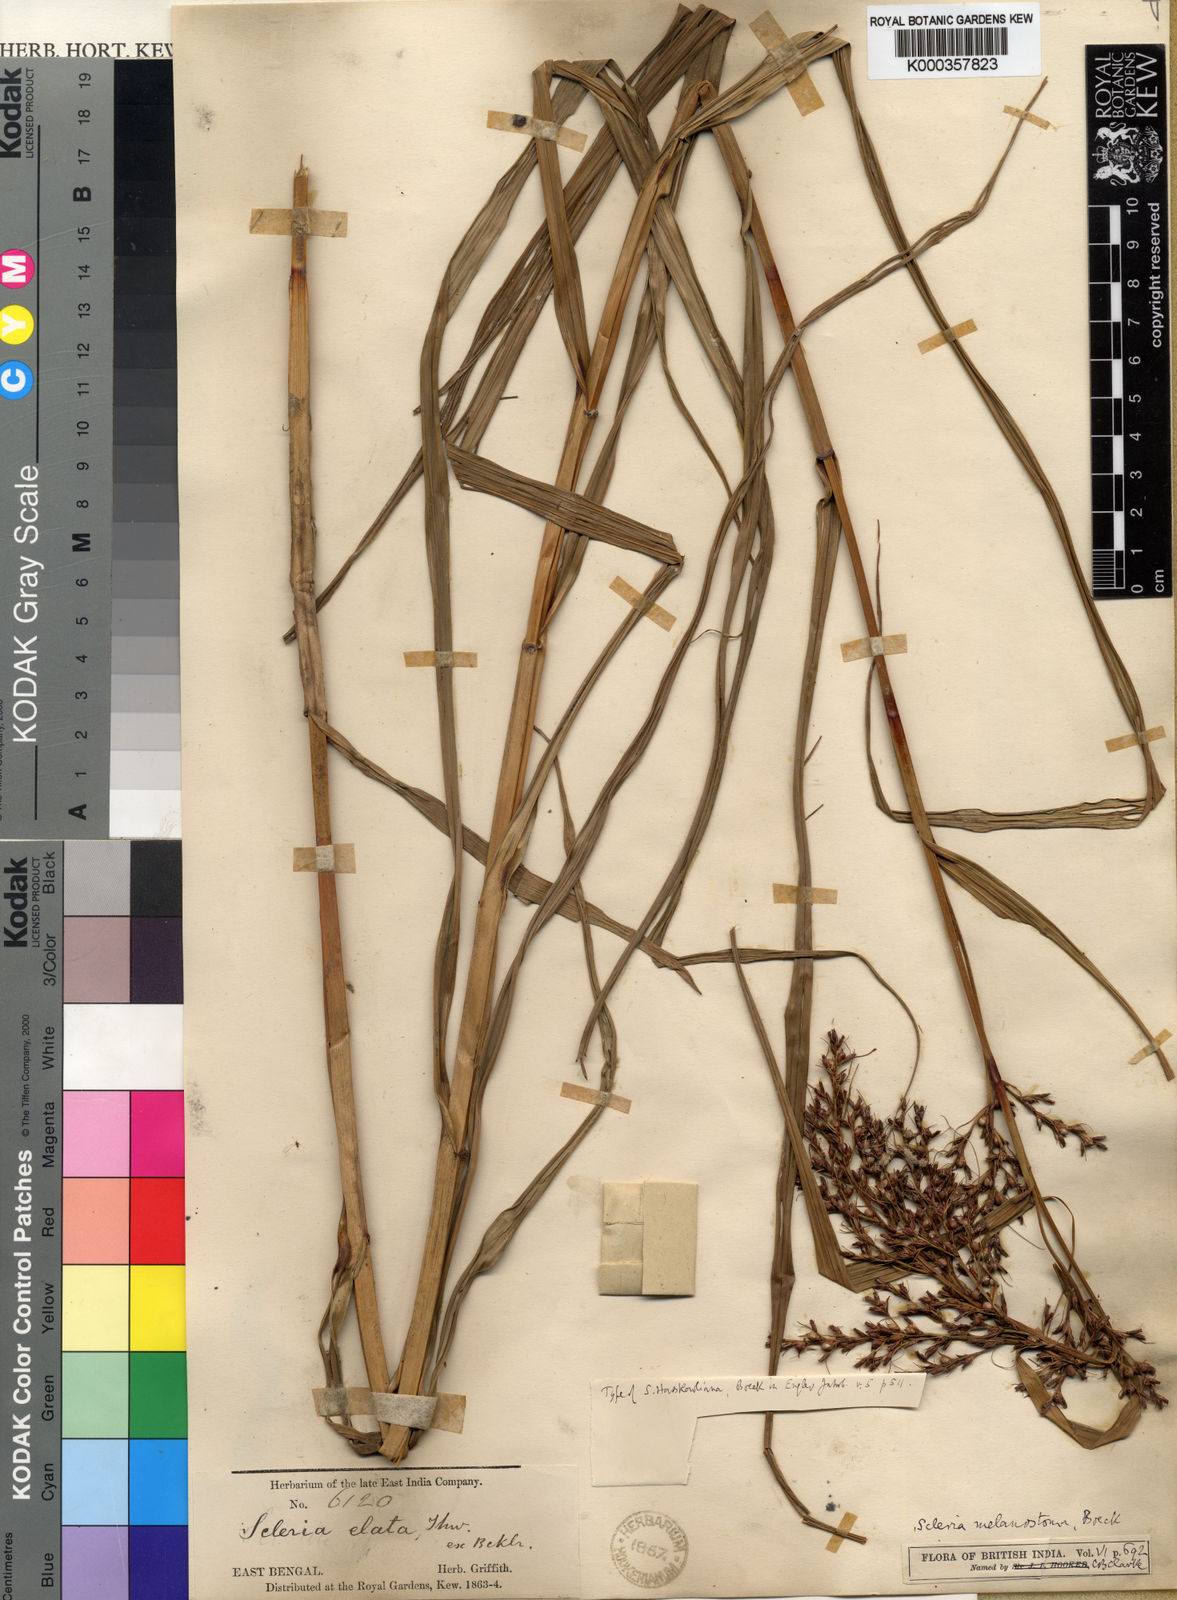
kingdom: Plantae
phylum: Tracheophyta
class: Liliopsida
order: Poales
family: Cyperaceae
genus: Scleria
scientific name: Scleria terrestris
